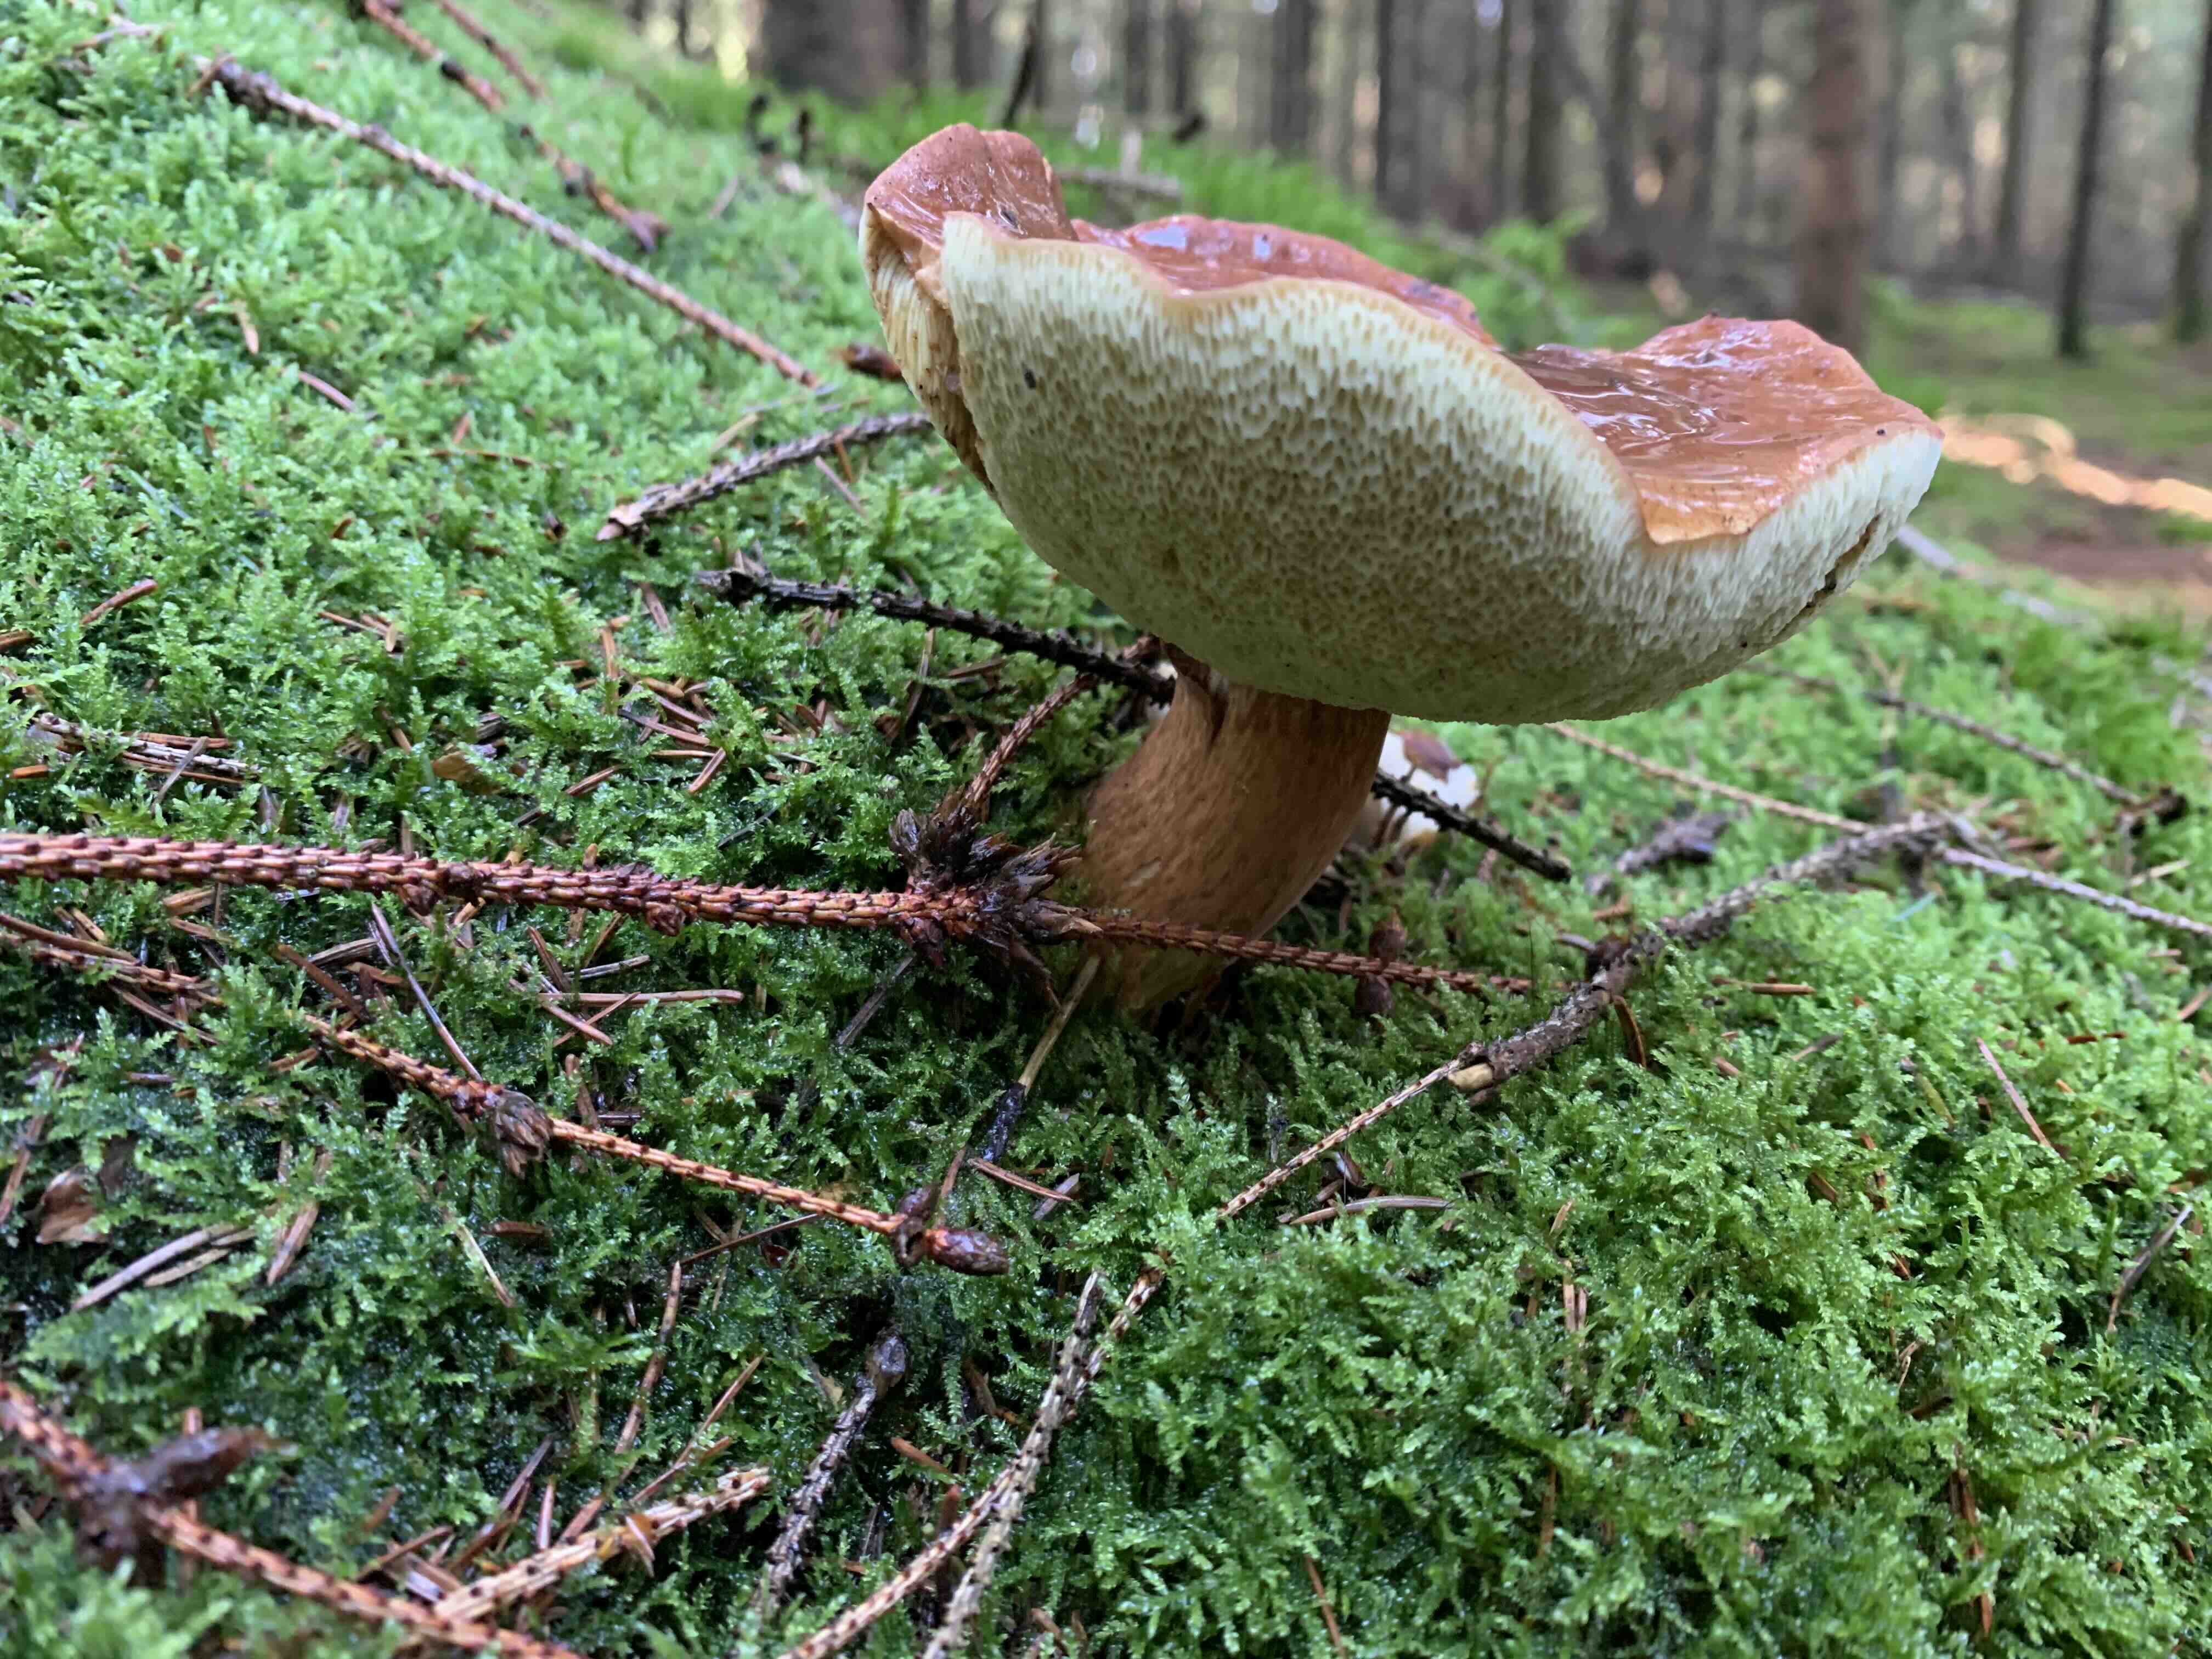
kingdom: Fungi
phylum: Basidiomycota
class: Agaricomycetes
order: Boletales
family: Boletaceae
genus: Imleria
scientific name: Imleria badia
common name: brunstokket rørhat
